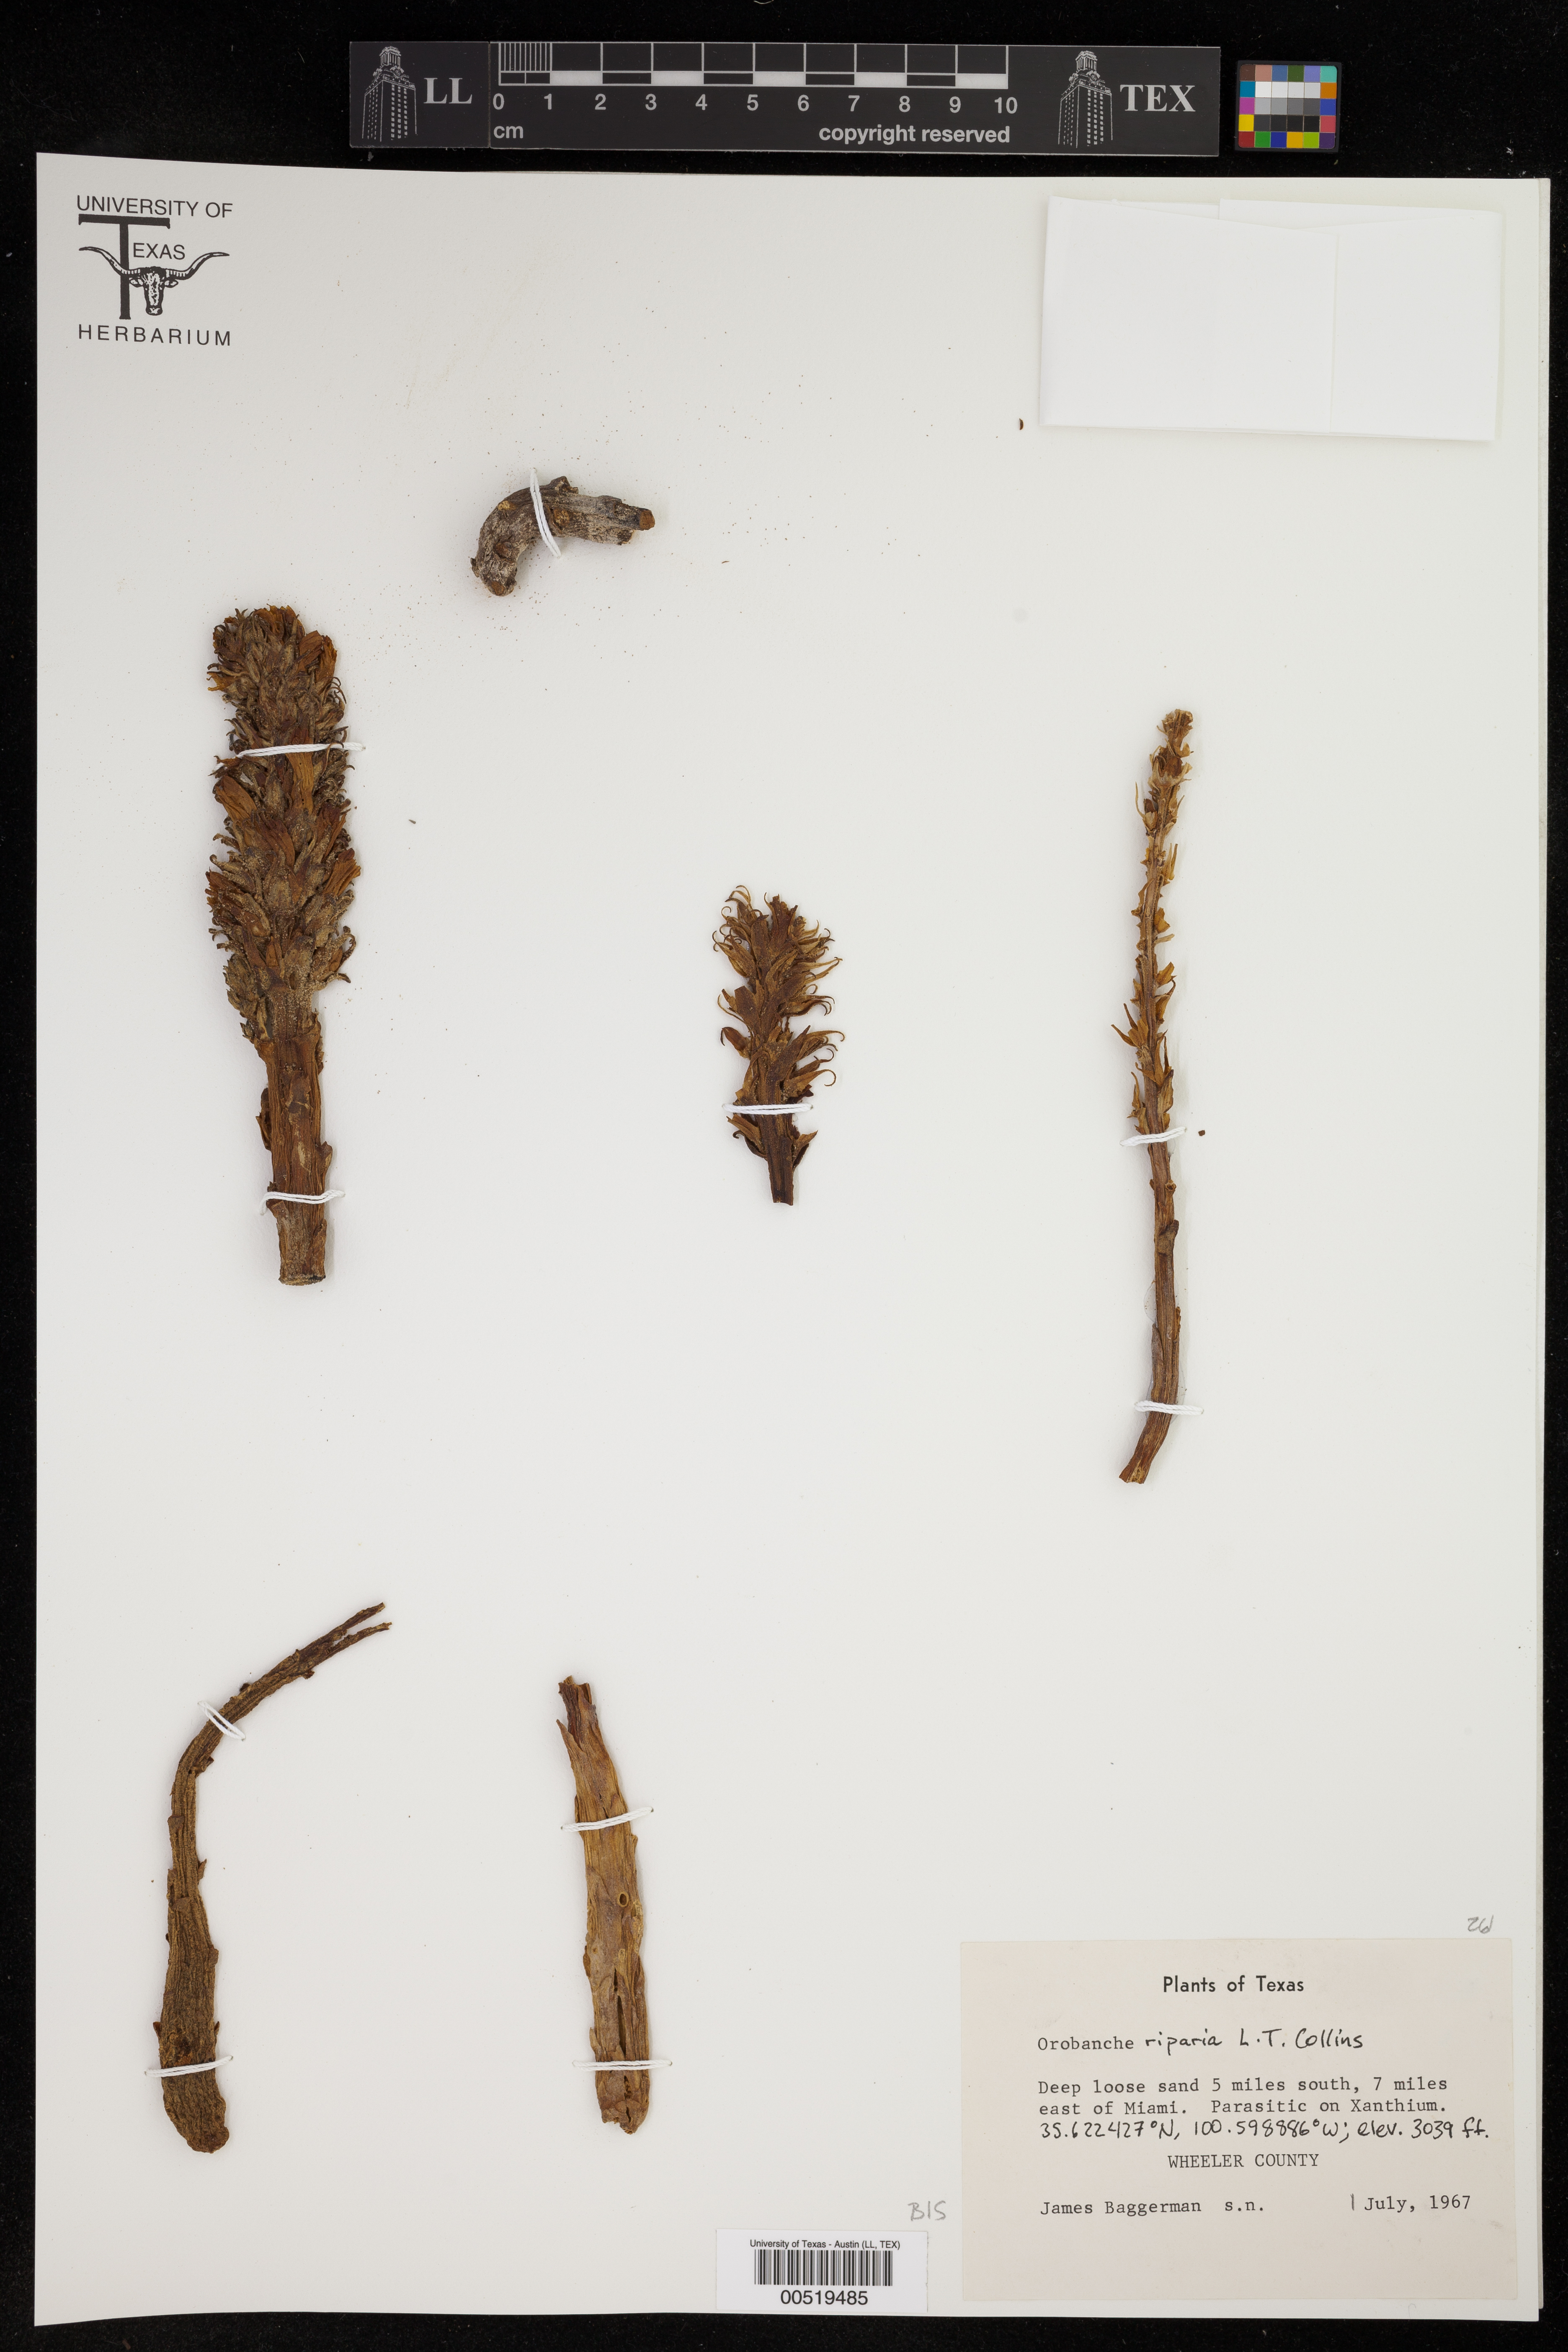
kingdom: Plantae
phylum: Tracheophyta
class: Magnoliopsida
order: Lamiales
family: Orobanchaceae
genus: Aphyllon
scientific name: Aphyllon riparium
